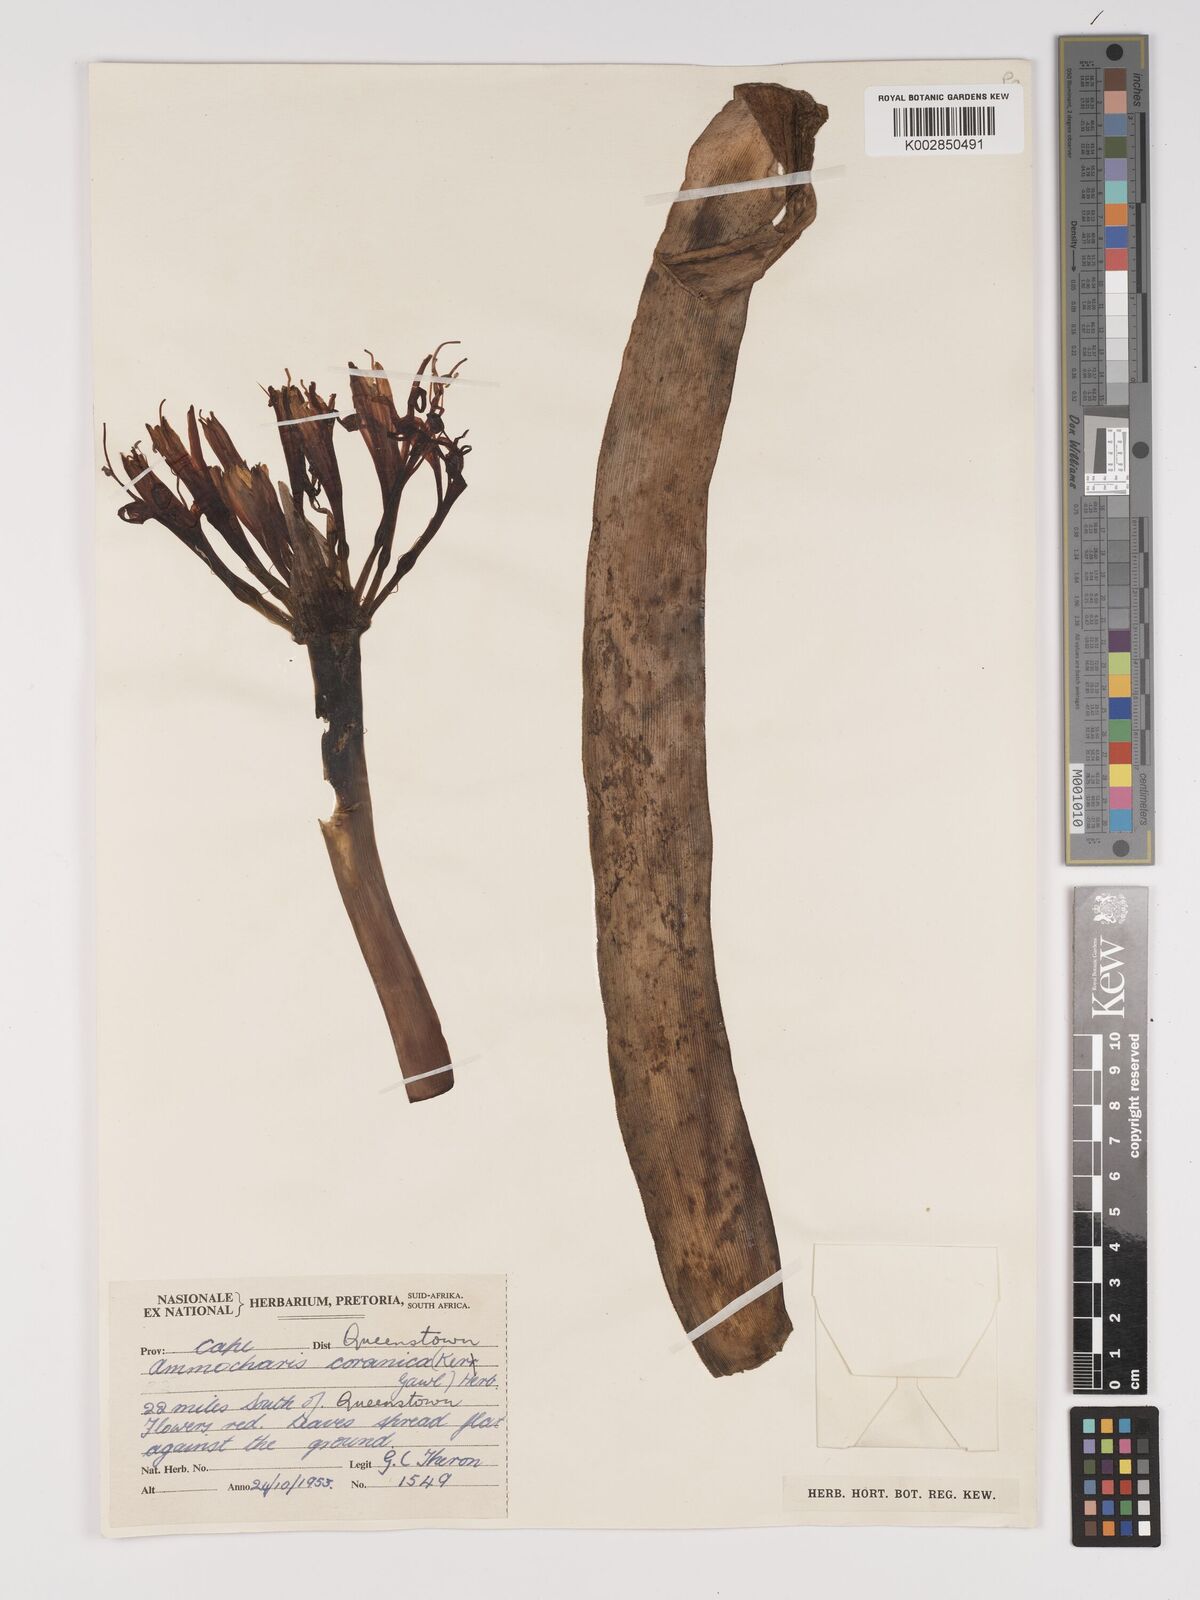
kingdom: Plantae
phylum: Tracheophyta
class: Liliopsida
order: Asparagales
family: Amaryllidaceae
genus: Ammocharis
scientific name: Ammocharis coranica
